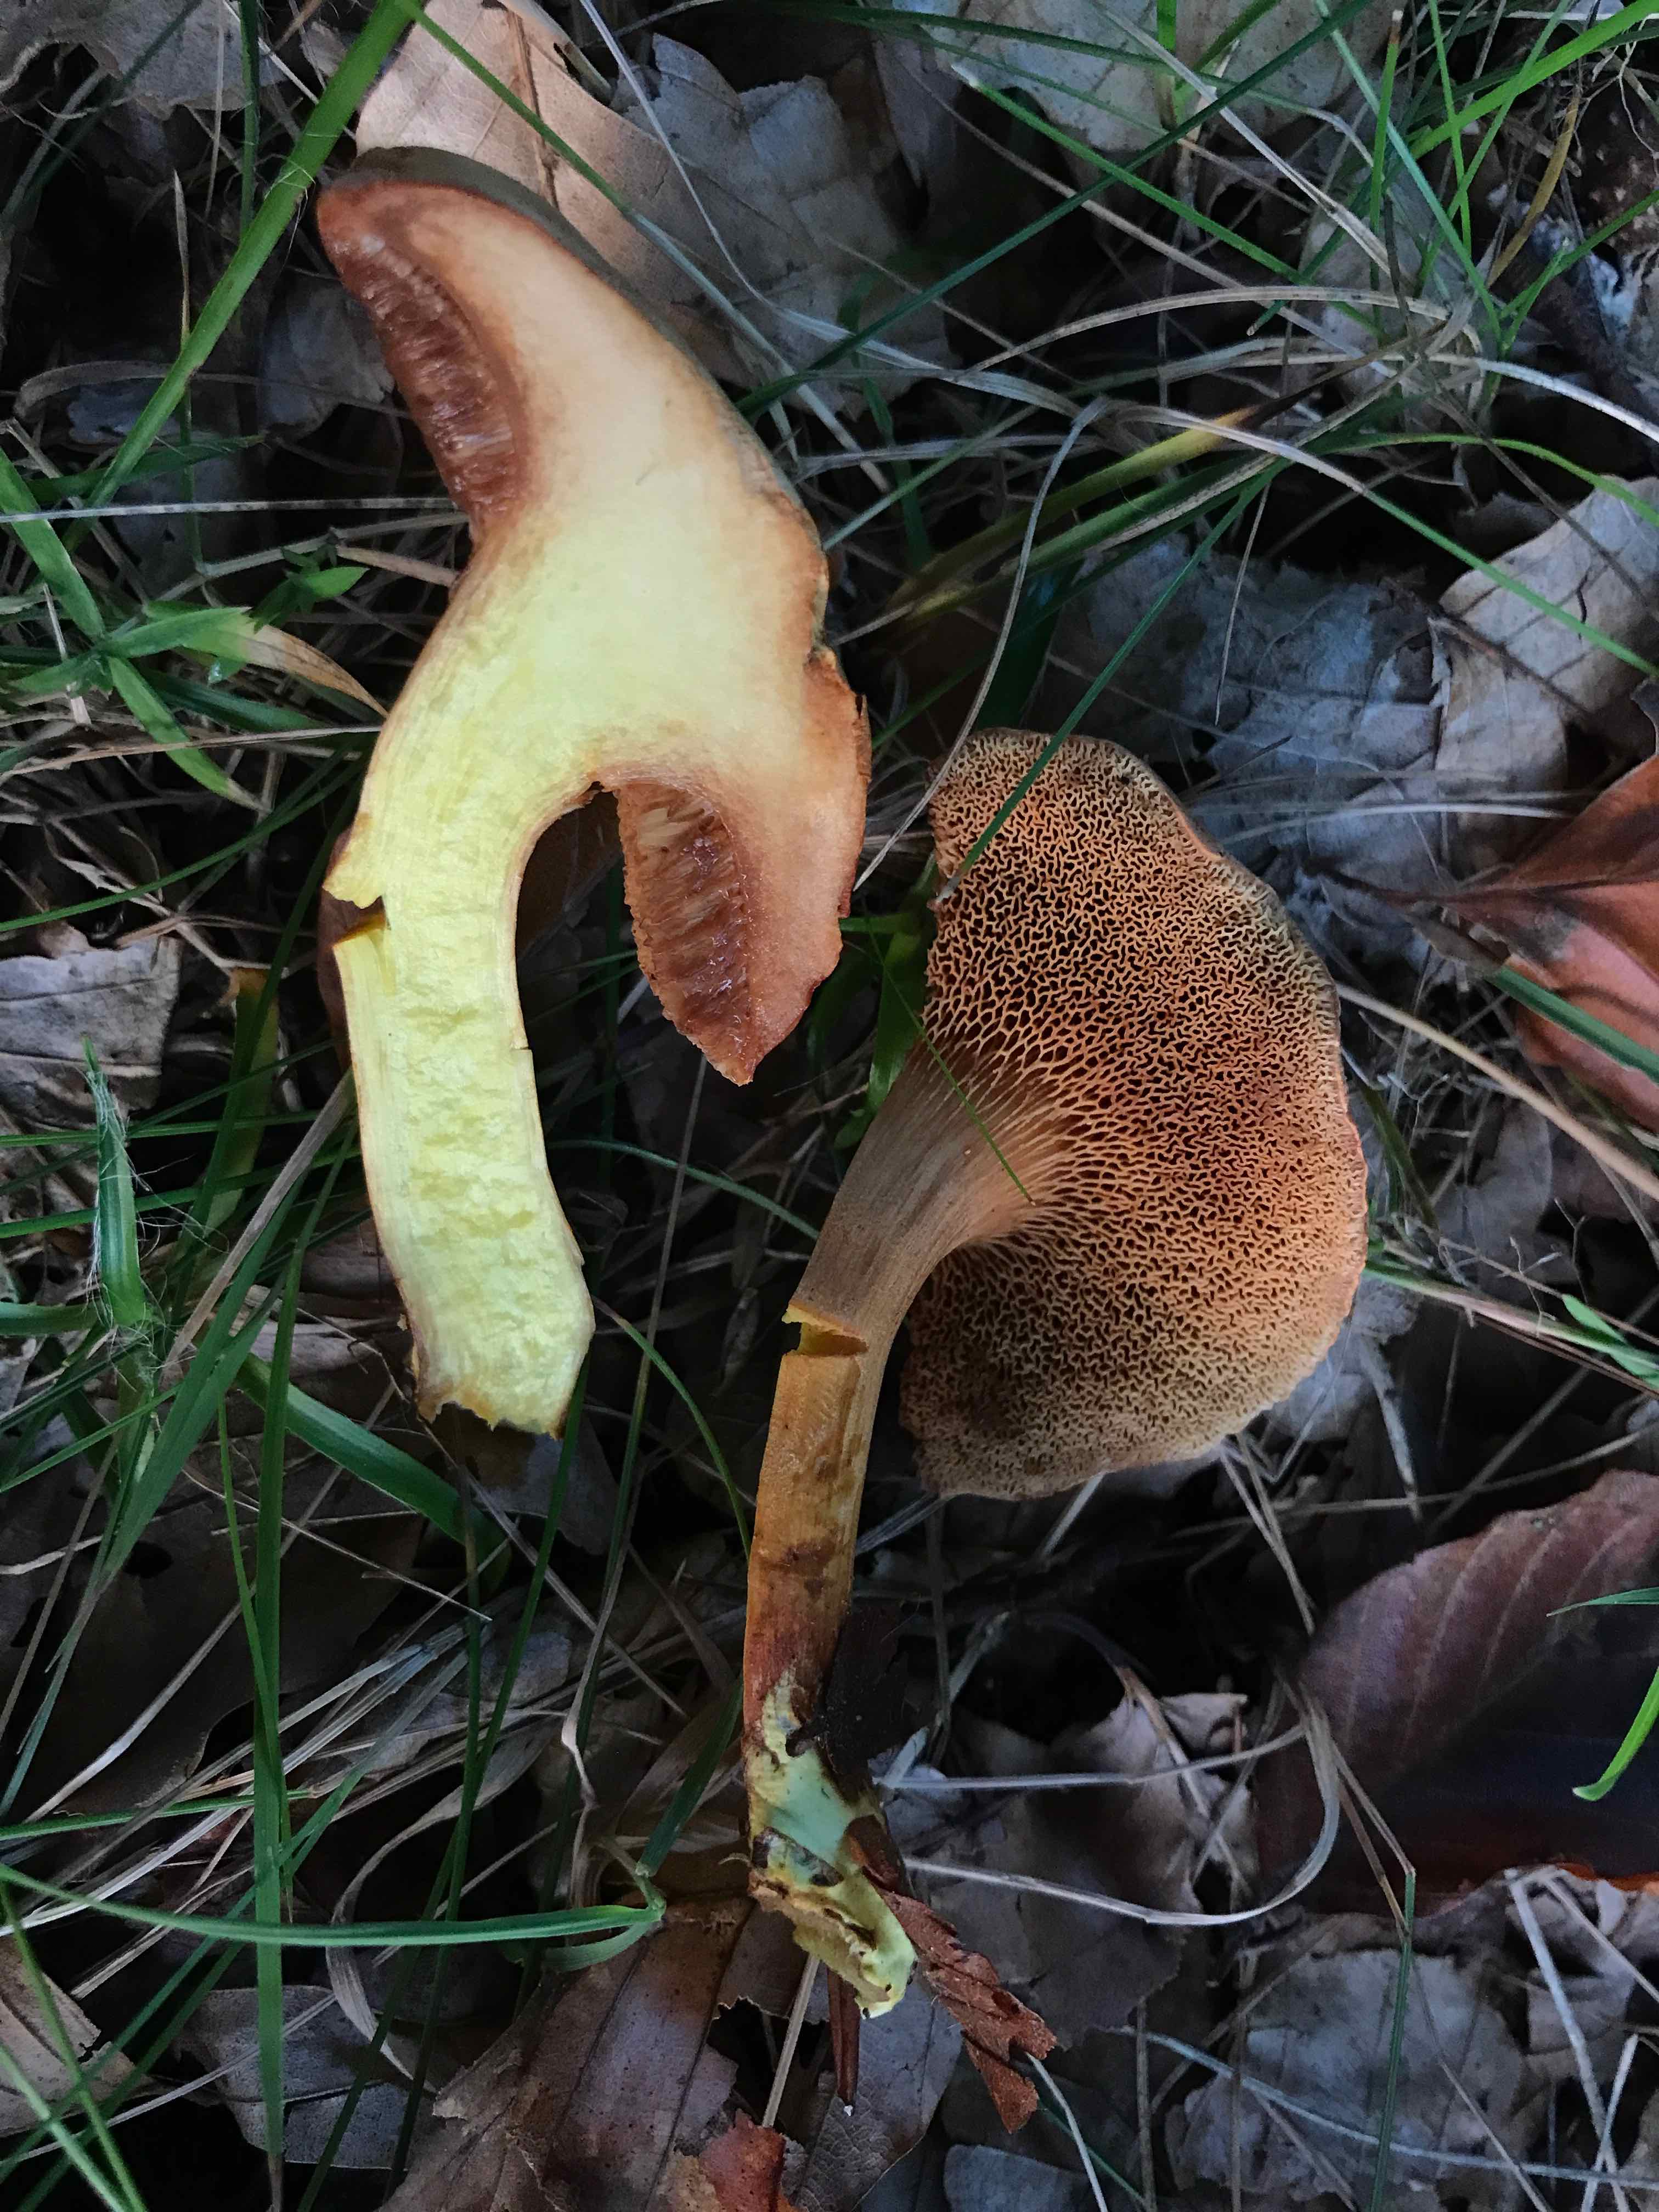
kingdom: Fungi
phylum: Basidiomycota
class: Agaricomycetes
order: Boletales
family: Boletaceae
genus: Chalciporus
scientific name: Chalciporus piperatus
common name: peberrørhat
